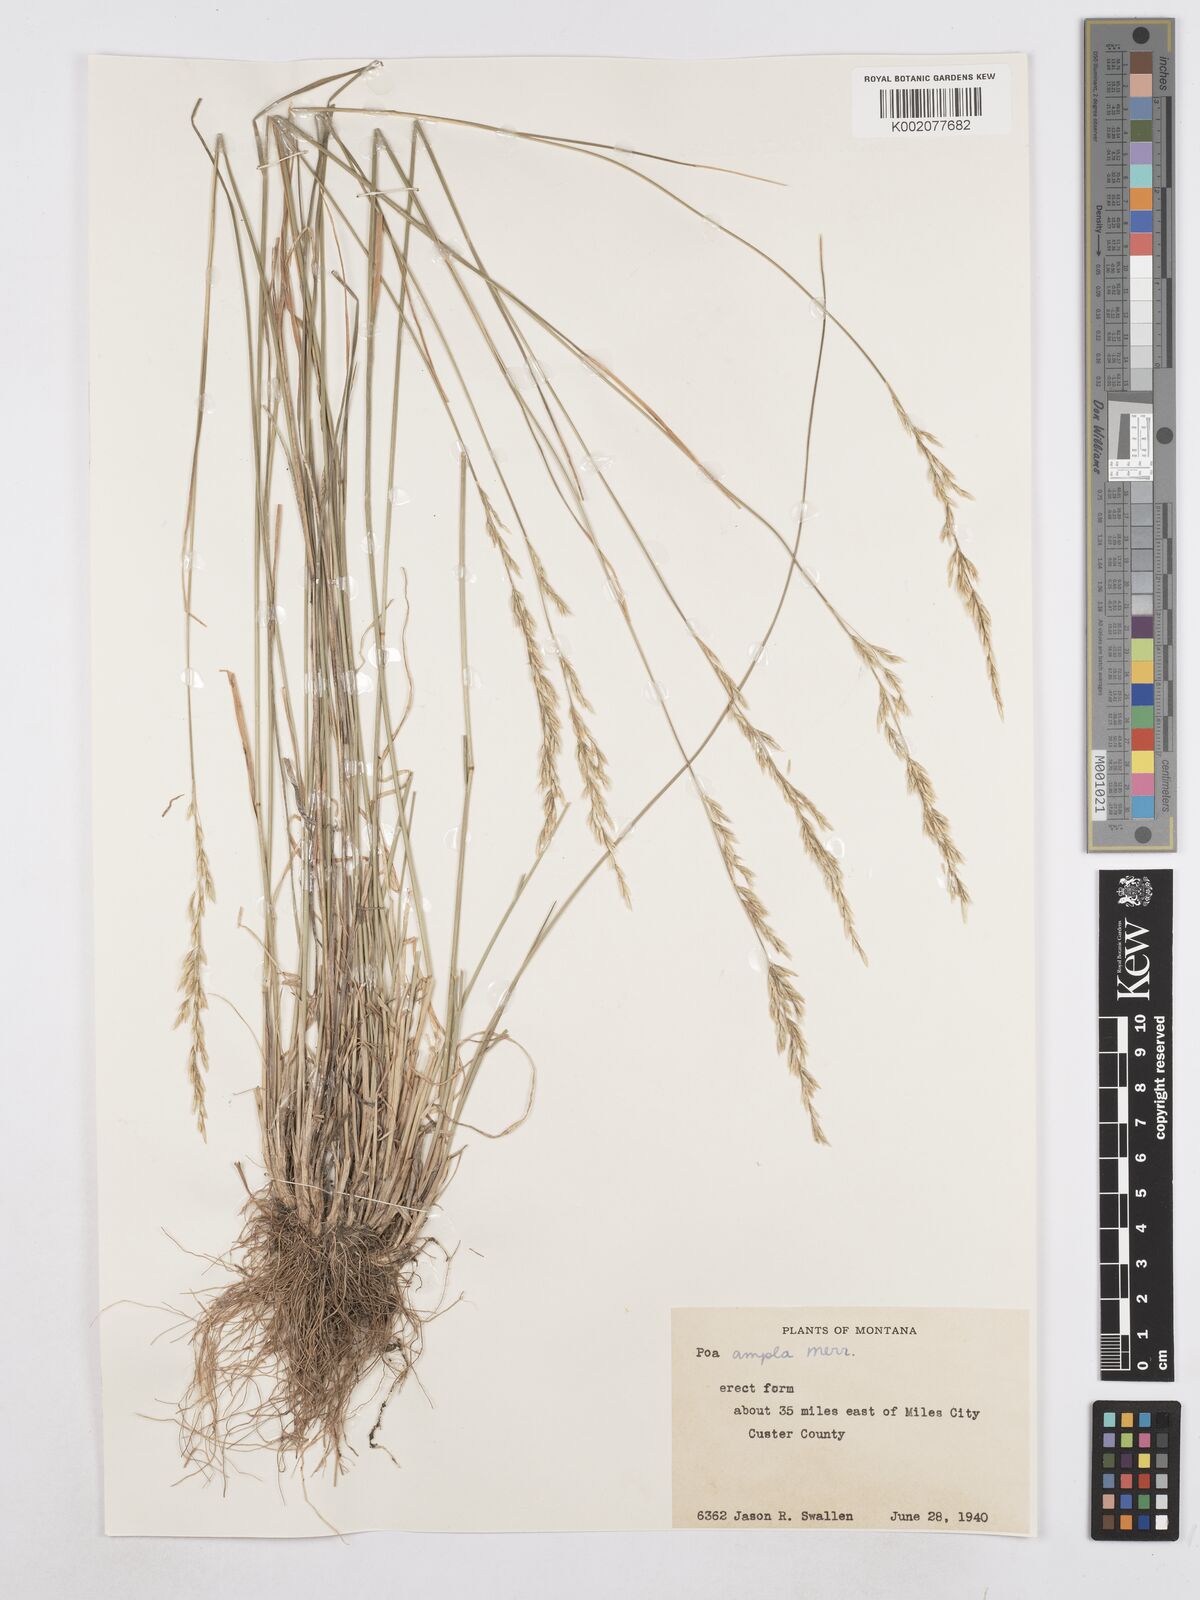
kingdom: Plantae
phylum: Tracheophyta
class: Liliopsida
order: Poales
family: Poaceae
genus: Poa
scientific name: Poa secunda
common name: Sandberg bluegrass
